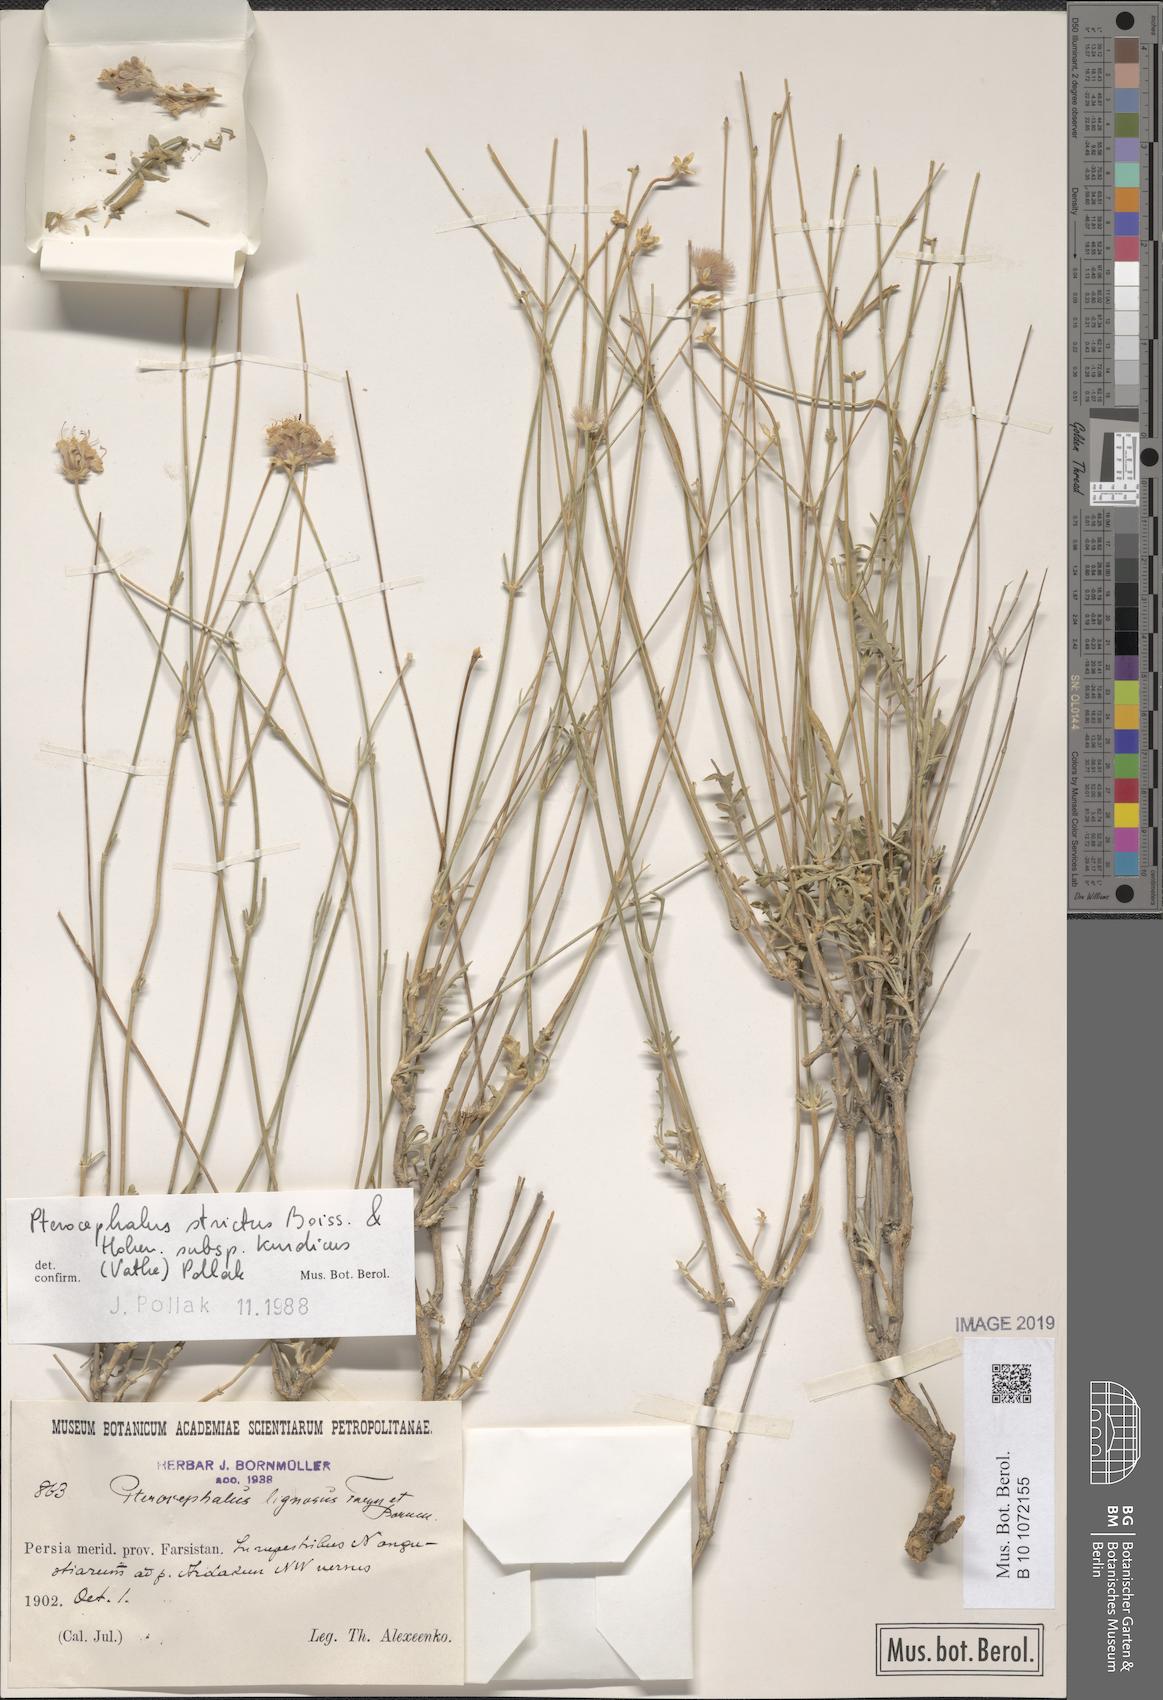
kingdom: Plantae
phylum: Tracheophyta
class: Magnoliopsida
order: Dipsacales
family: Caprifoliaceae
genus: Pterocephalus
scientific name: Pterocephalus strictus
